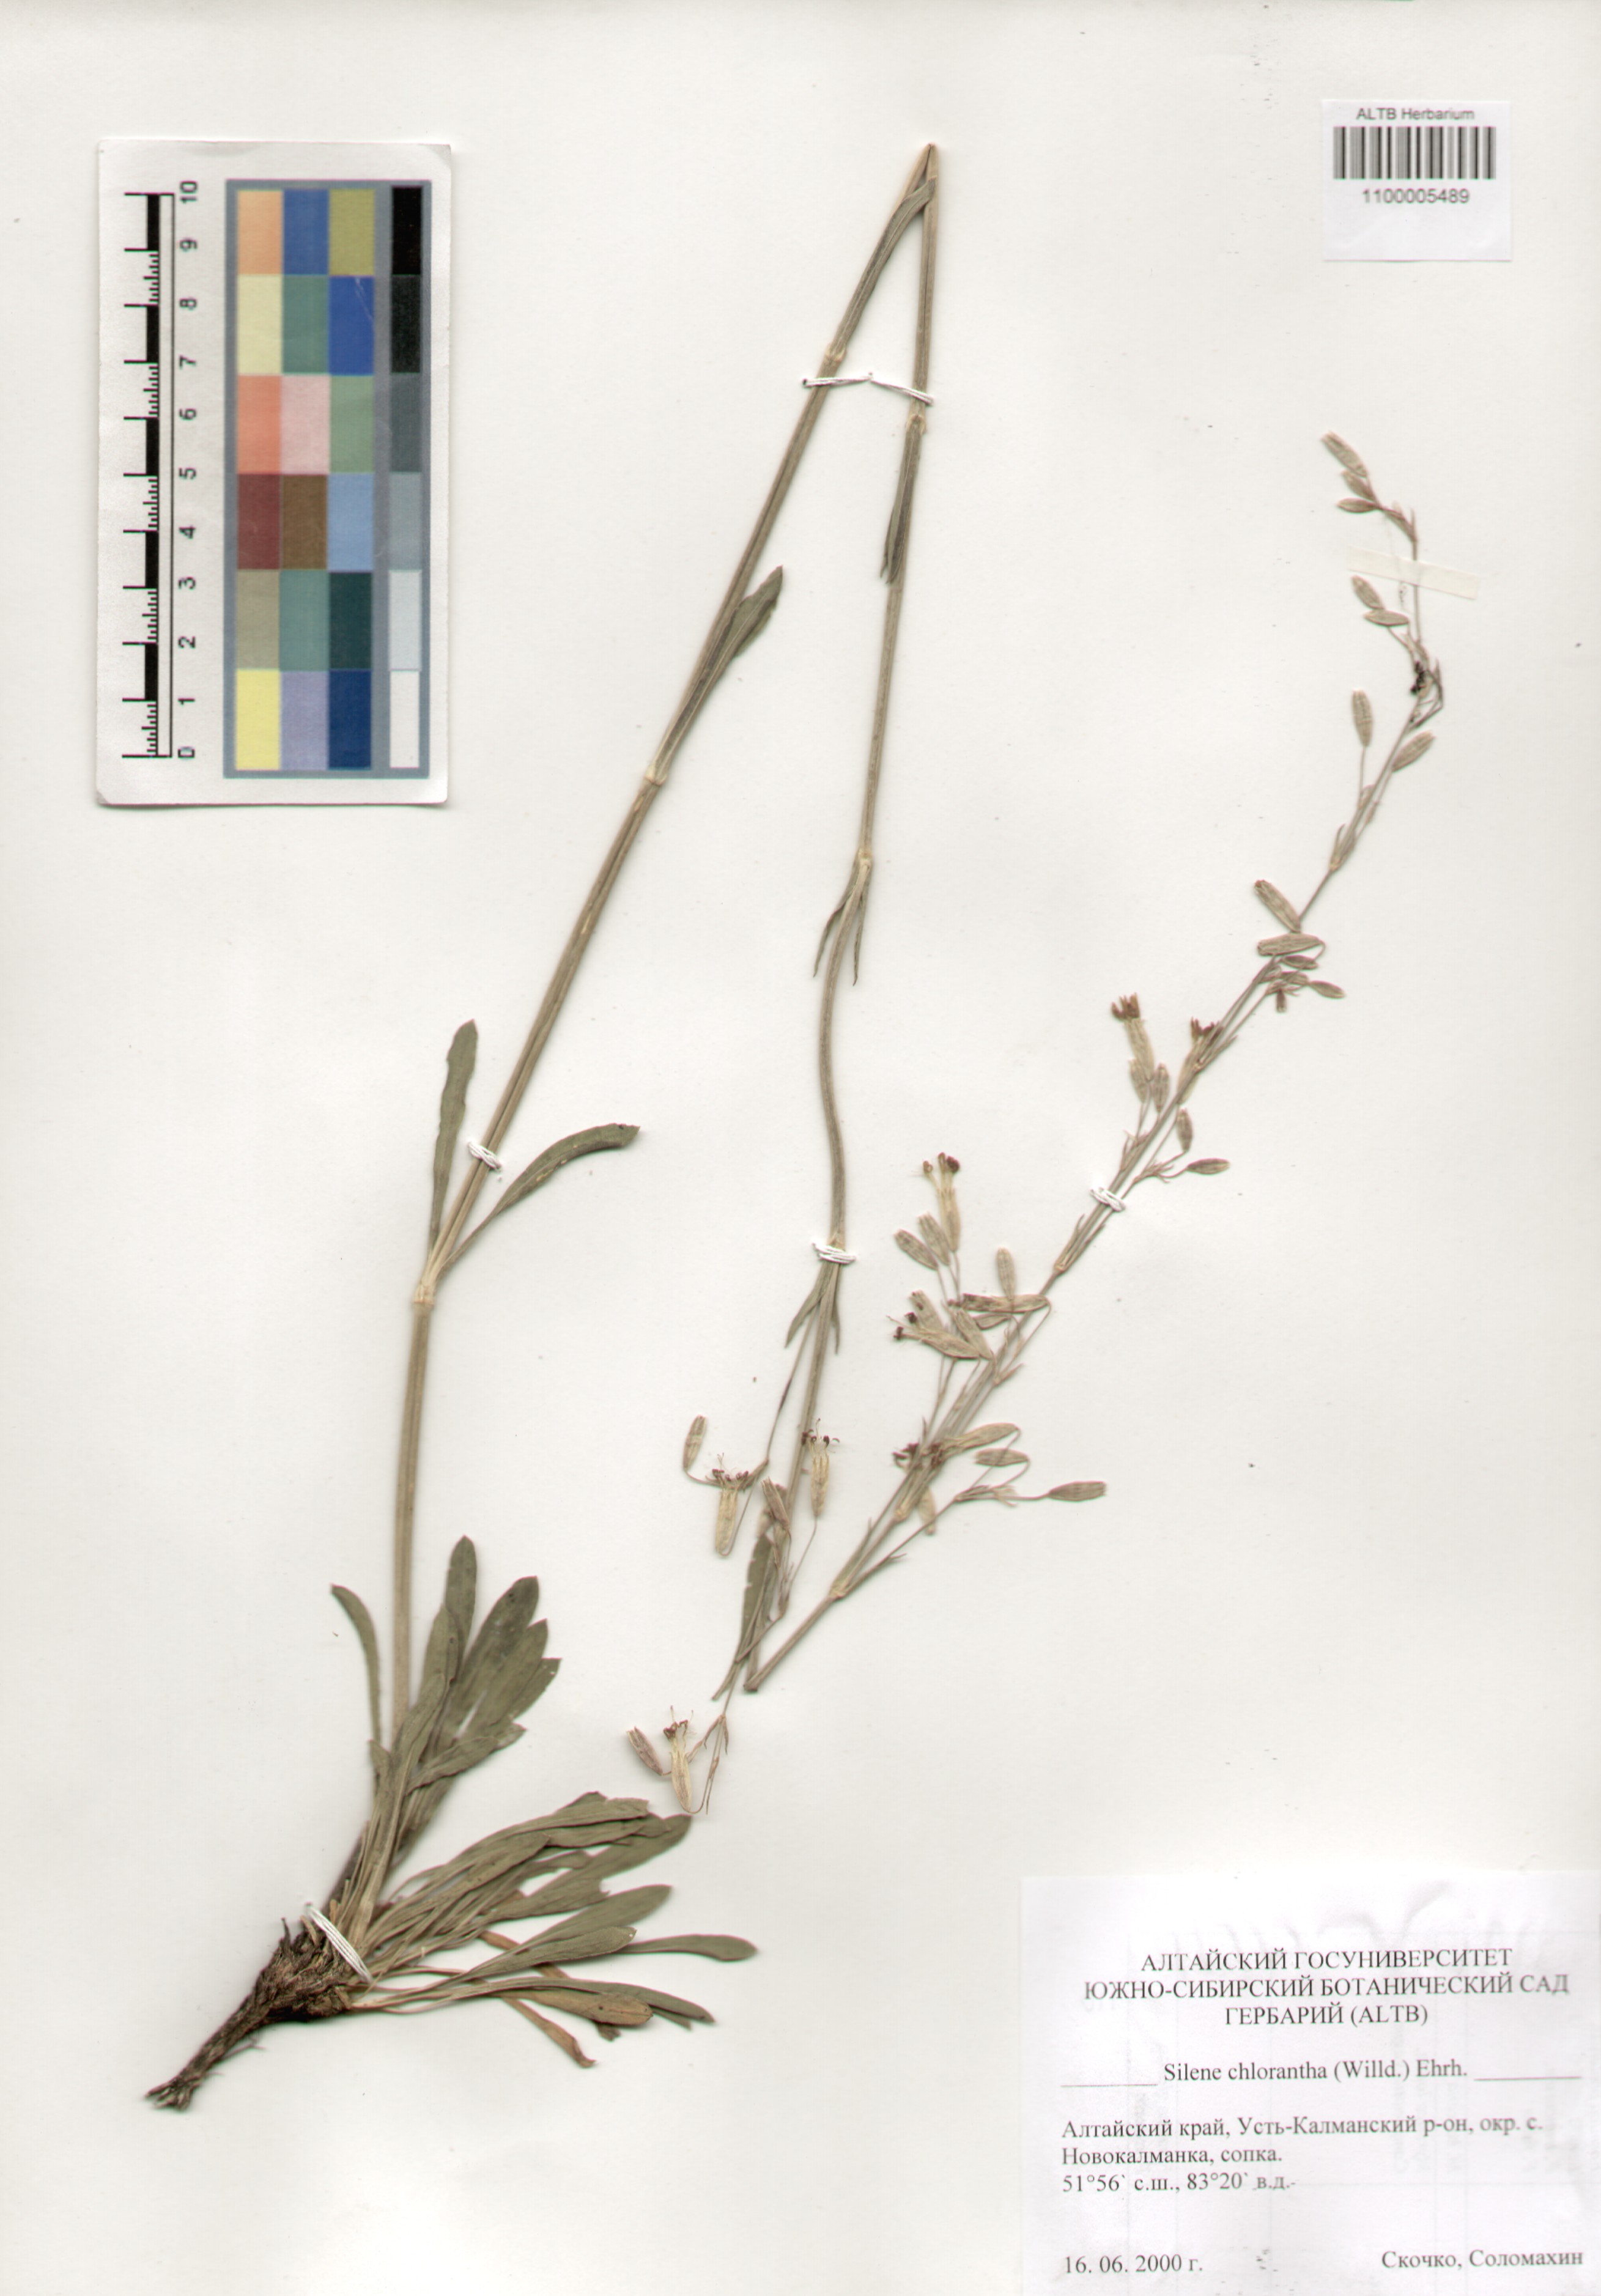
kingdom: Plantae
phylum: Tracheophyta
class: Magnoliopsida
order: Caryophyllales
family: Caryophyllaceae
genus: Silene
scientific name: Silene chlorantha
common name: Yellowgreen catchfly
